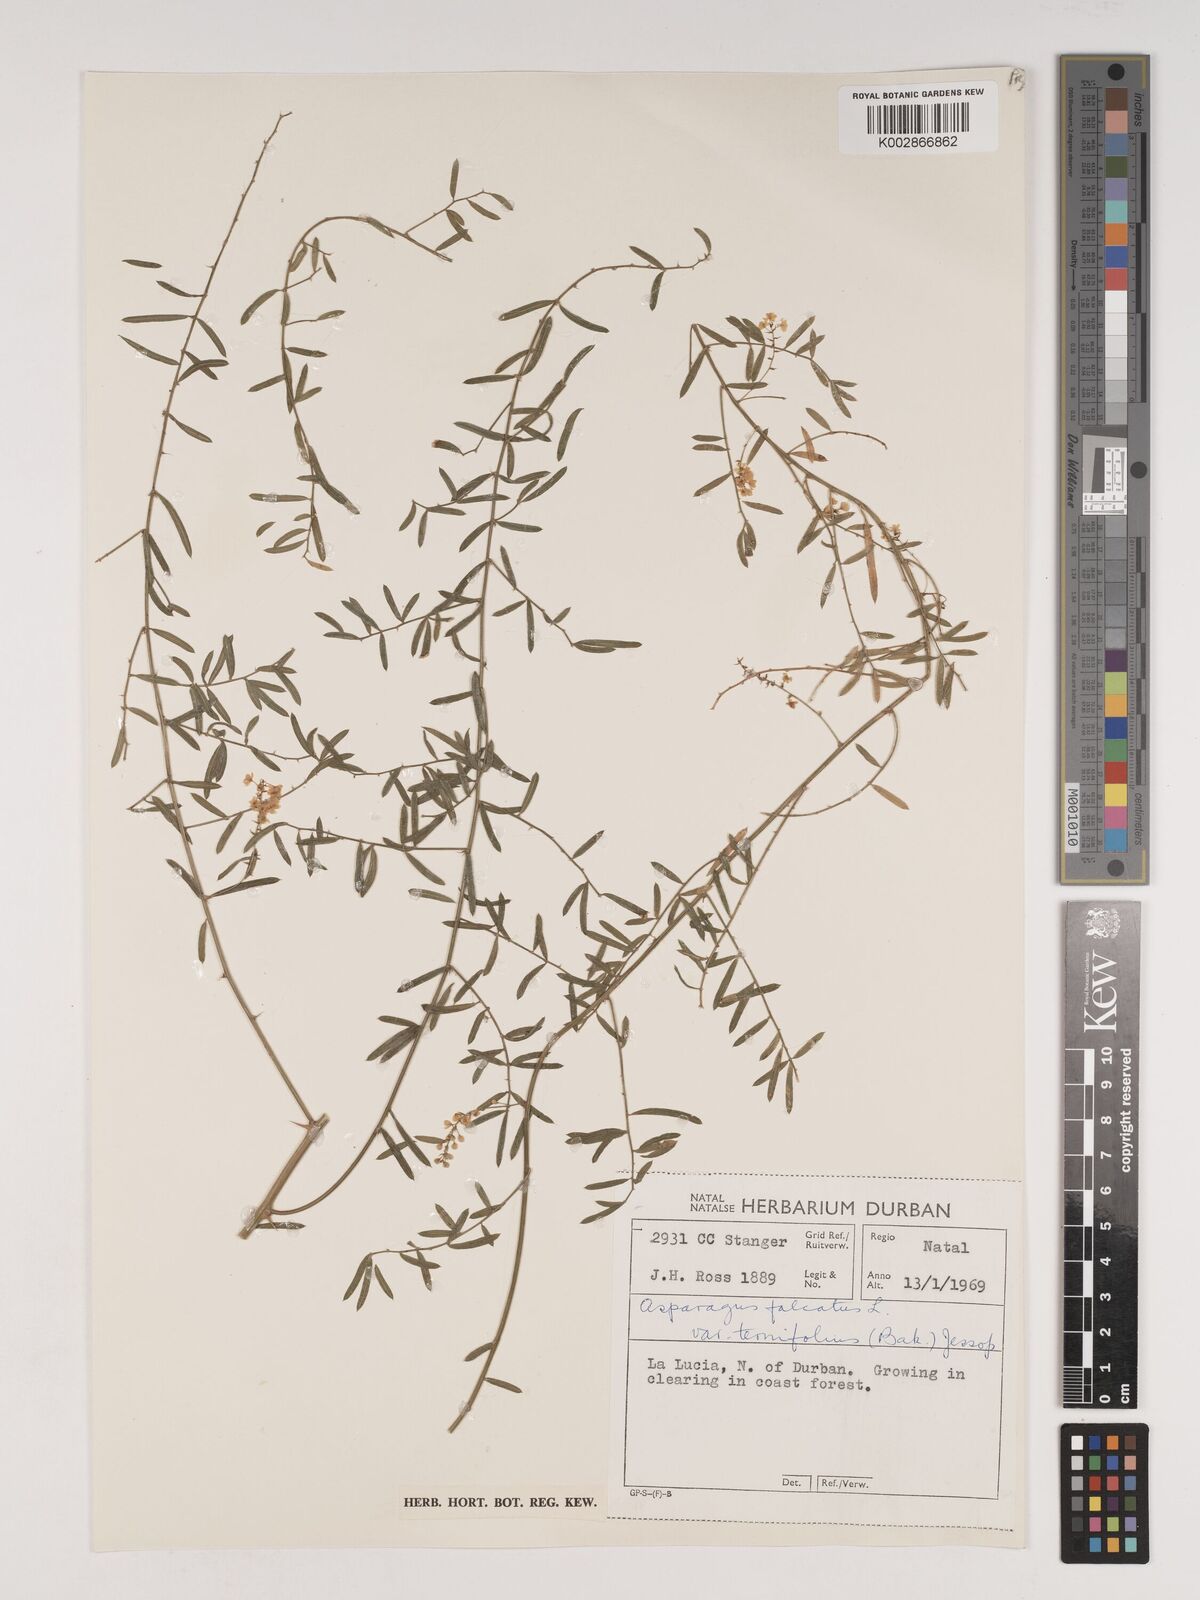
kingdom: Plantae
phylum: Tracheophyta
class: Liliopsida
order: Asparagales
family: Asparagaceae
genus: Asparagus
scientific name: Asparagus densiflorus
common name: Asparagus fern
